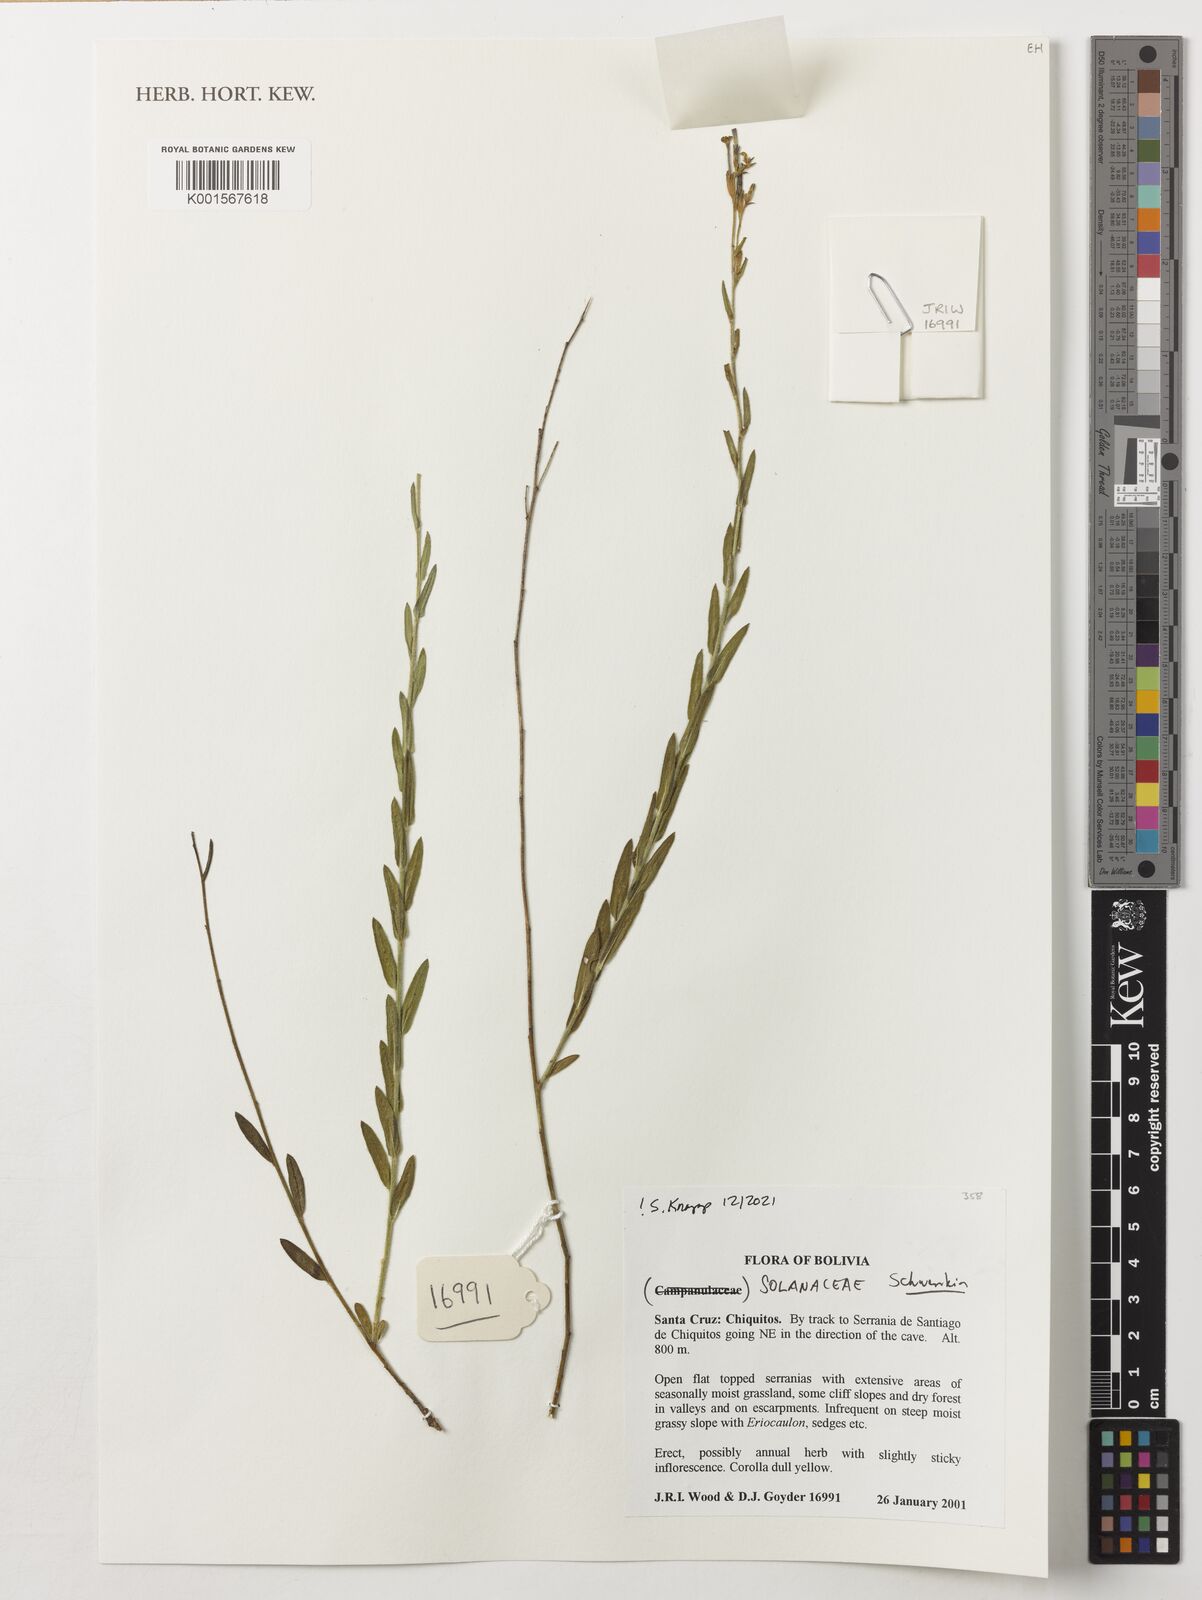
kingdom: Plantae
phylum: Tracheophyta
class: Magnoliopsida
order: Solanales
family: Solanaceae
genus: Schwenckia
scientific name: Schwenckia
